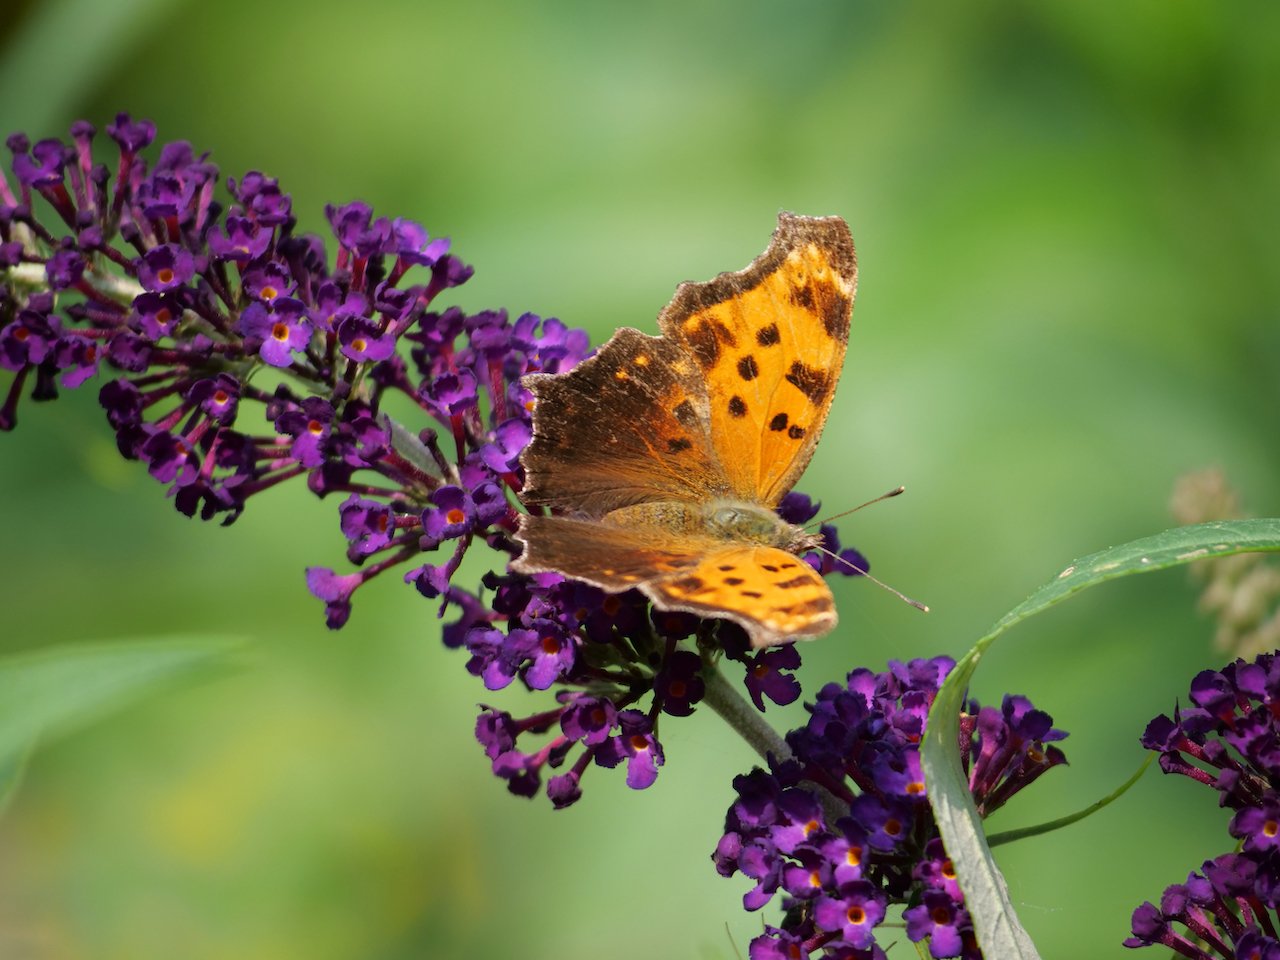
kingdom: Animalia
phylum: Arthropoda
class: Insecta
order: Lepidoptera
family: Nymphalidae
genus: Polygonia
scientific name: Polygonia comma
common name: Eastern Comma
